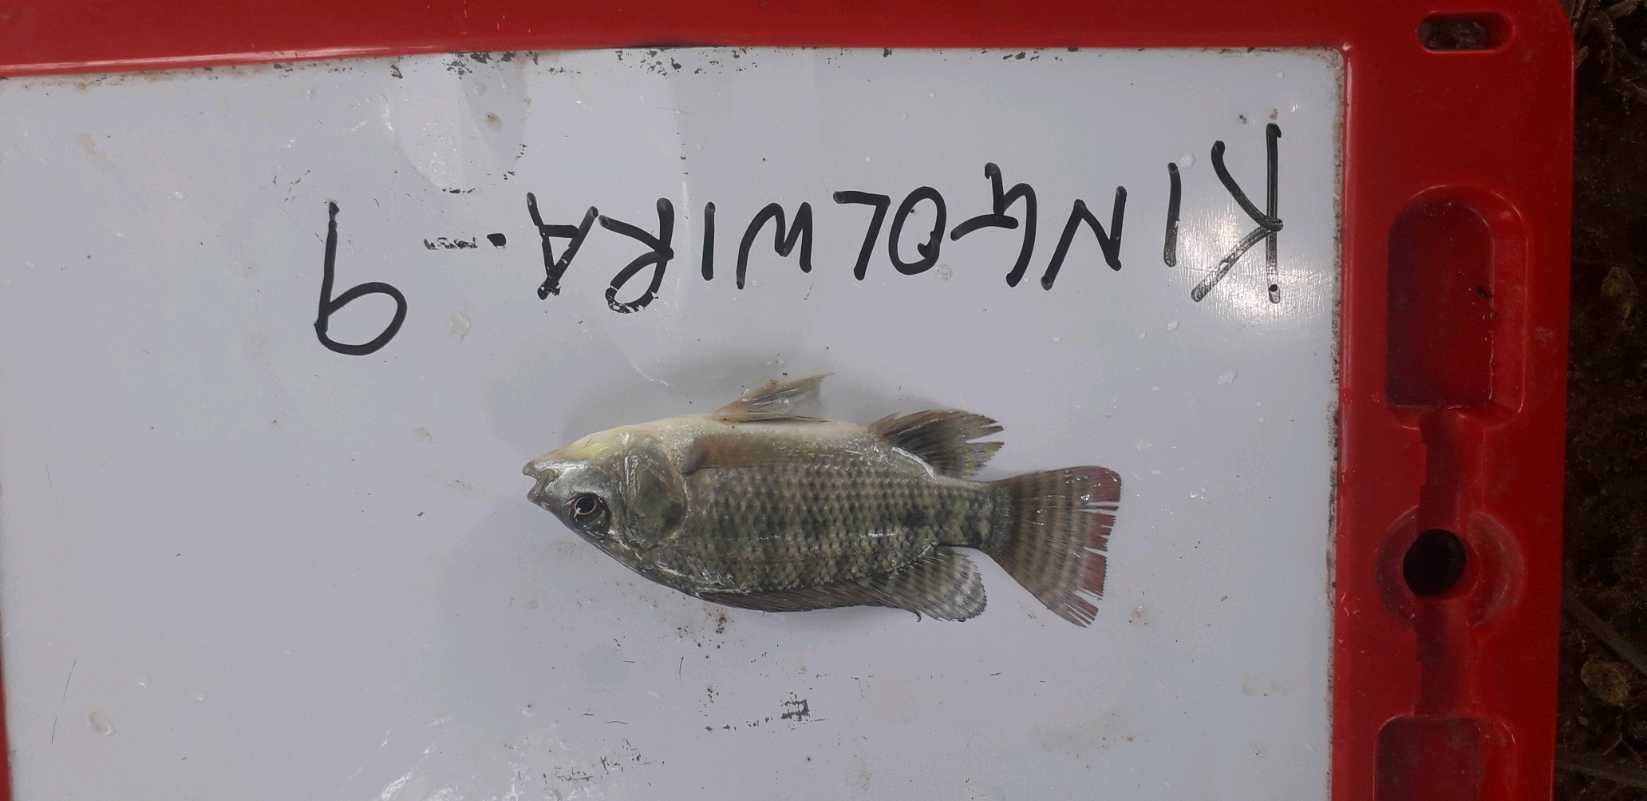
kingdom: Animalia
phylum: Chordata
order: Perciformes
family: Cichlidae
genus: Oreochromis
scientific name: Oreochromis niloticus
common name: Nile tilapia
